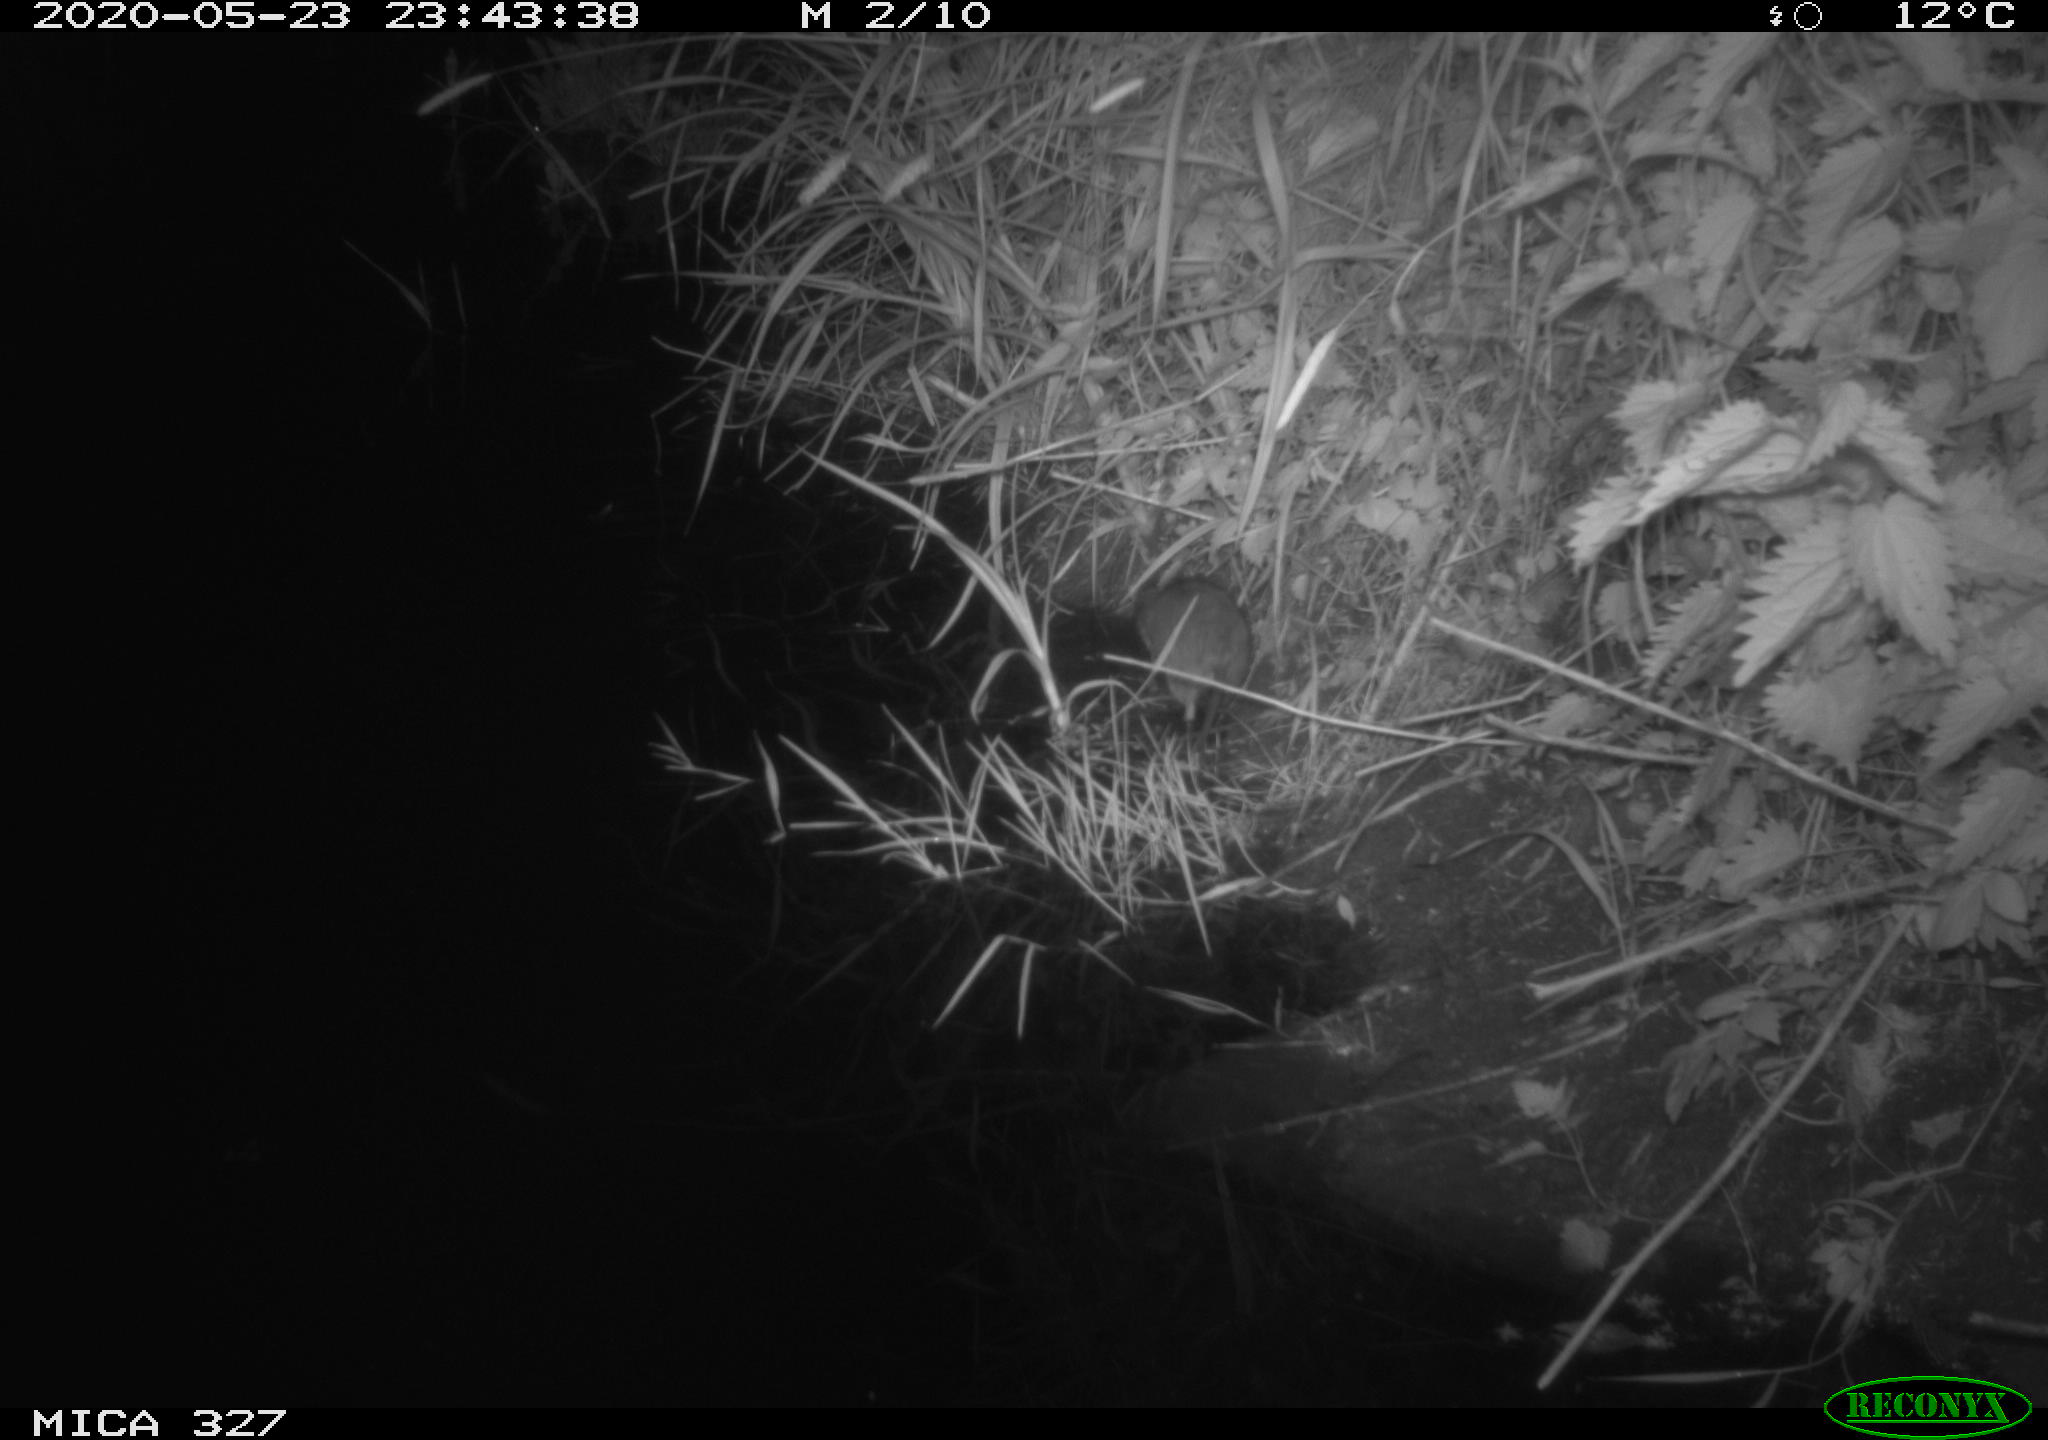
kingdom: Animalia
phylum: Chordata
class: Mammalia
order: Rodentia
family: Muridae
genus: Rattus
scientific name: Rattus norvegicus
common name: Brown rat
